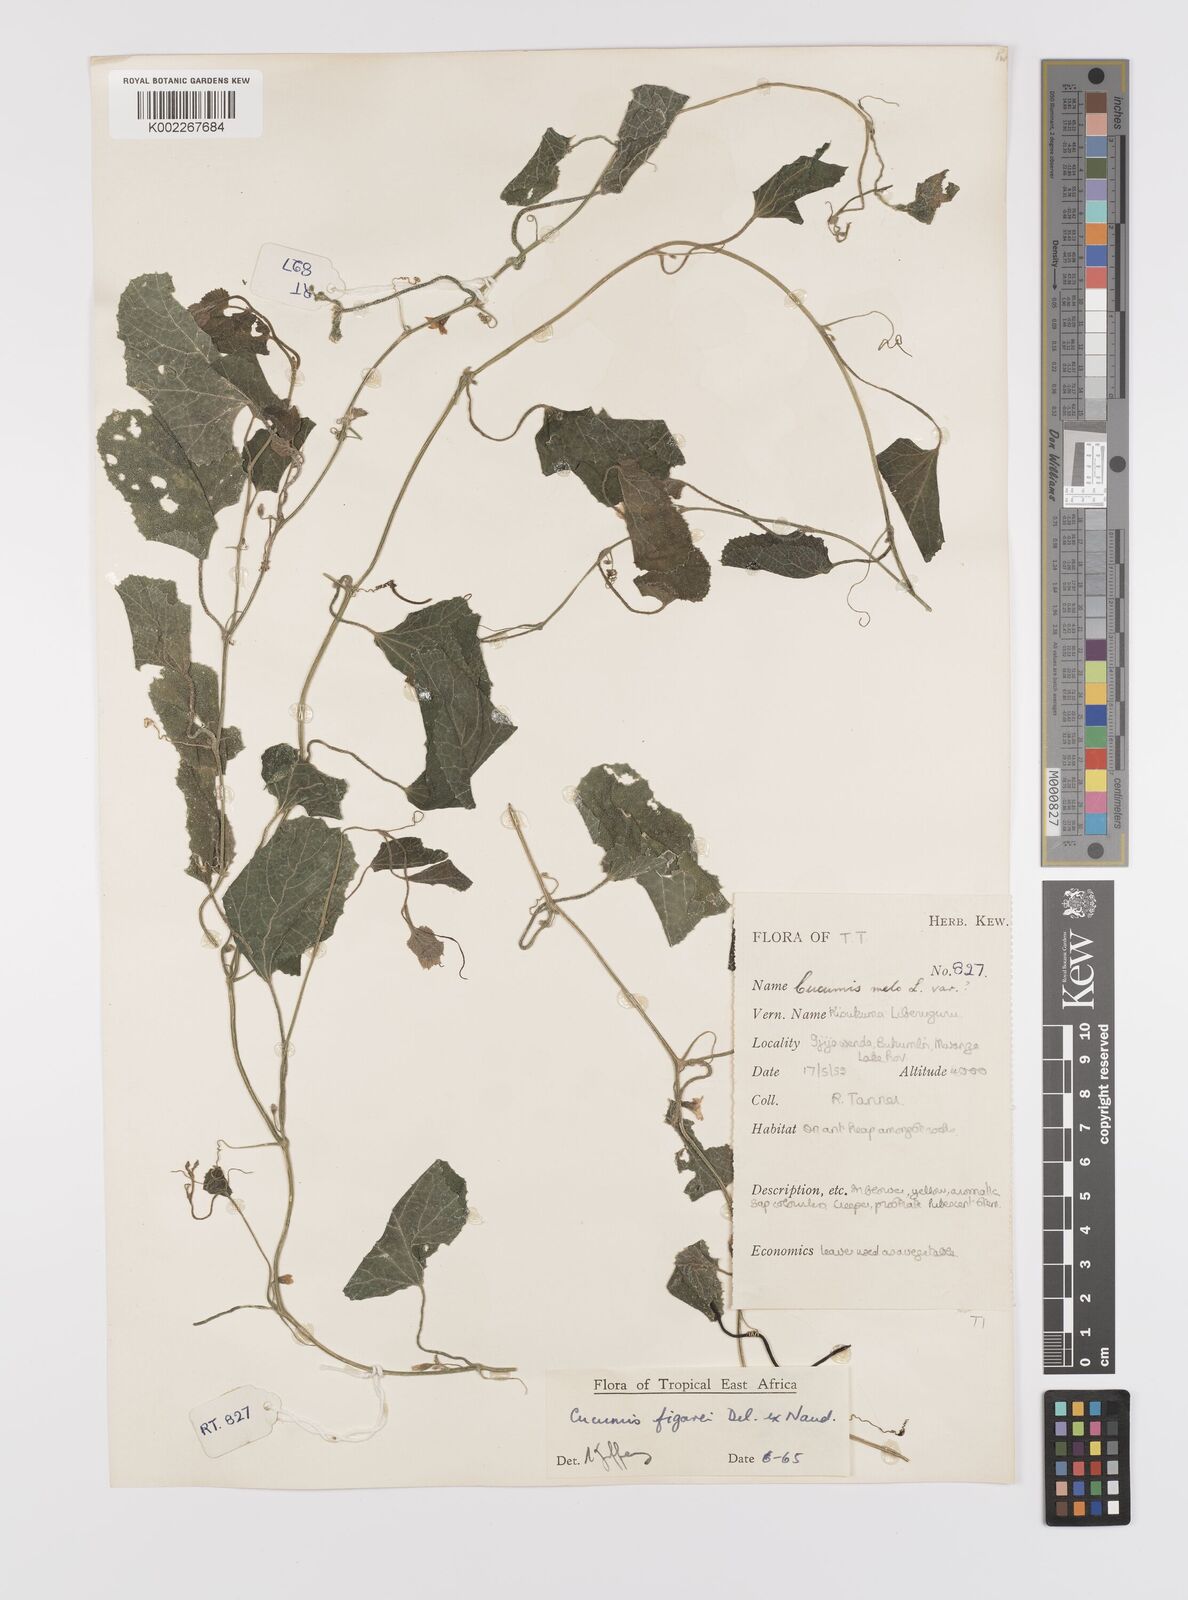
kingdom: Plantae
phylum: Tracheophyta
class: Magnoliopsida
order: Cucurbitales
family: Cucurbitaceae
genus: Cucumis
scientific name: Cucumis
